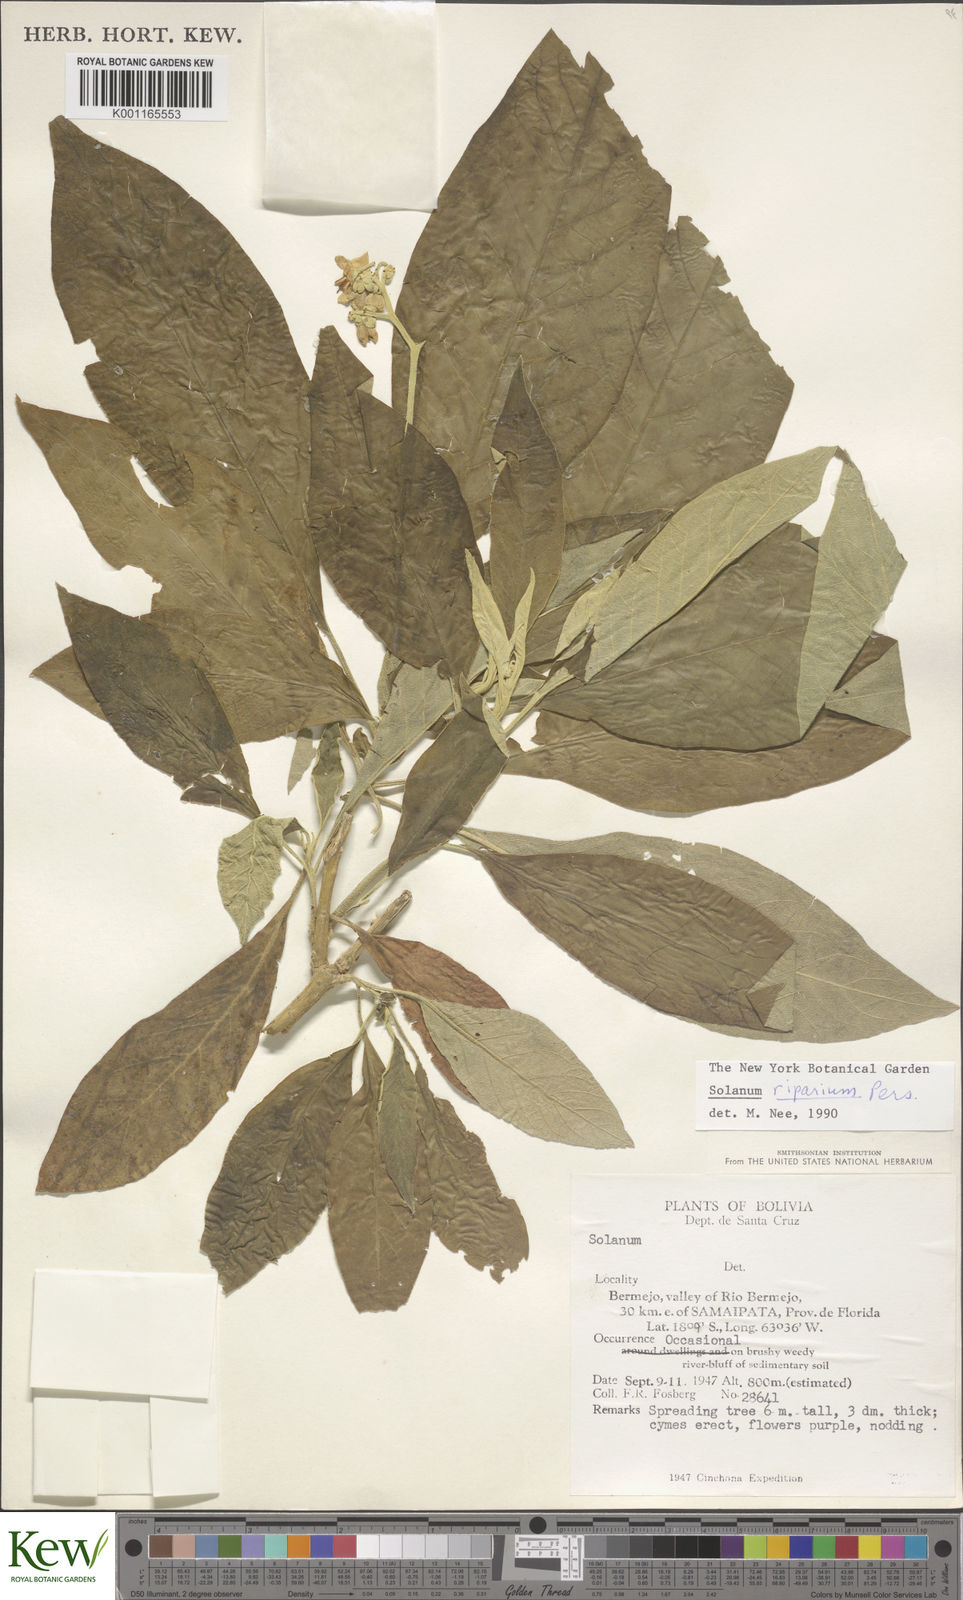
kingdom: Plantae
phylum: Tracheophyta
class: Magnoliopsida
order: Solanales
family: Solanaceae
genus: Solanum
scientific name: Solanum riparium
